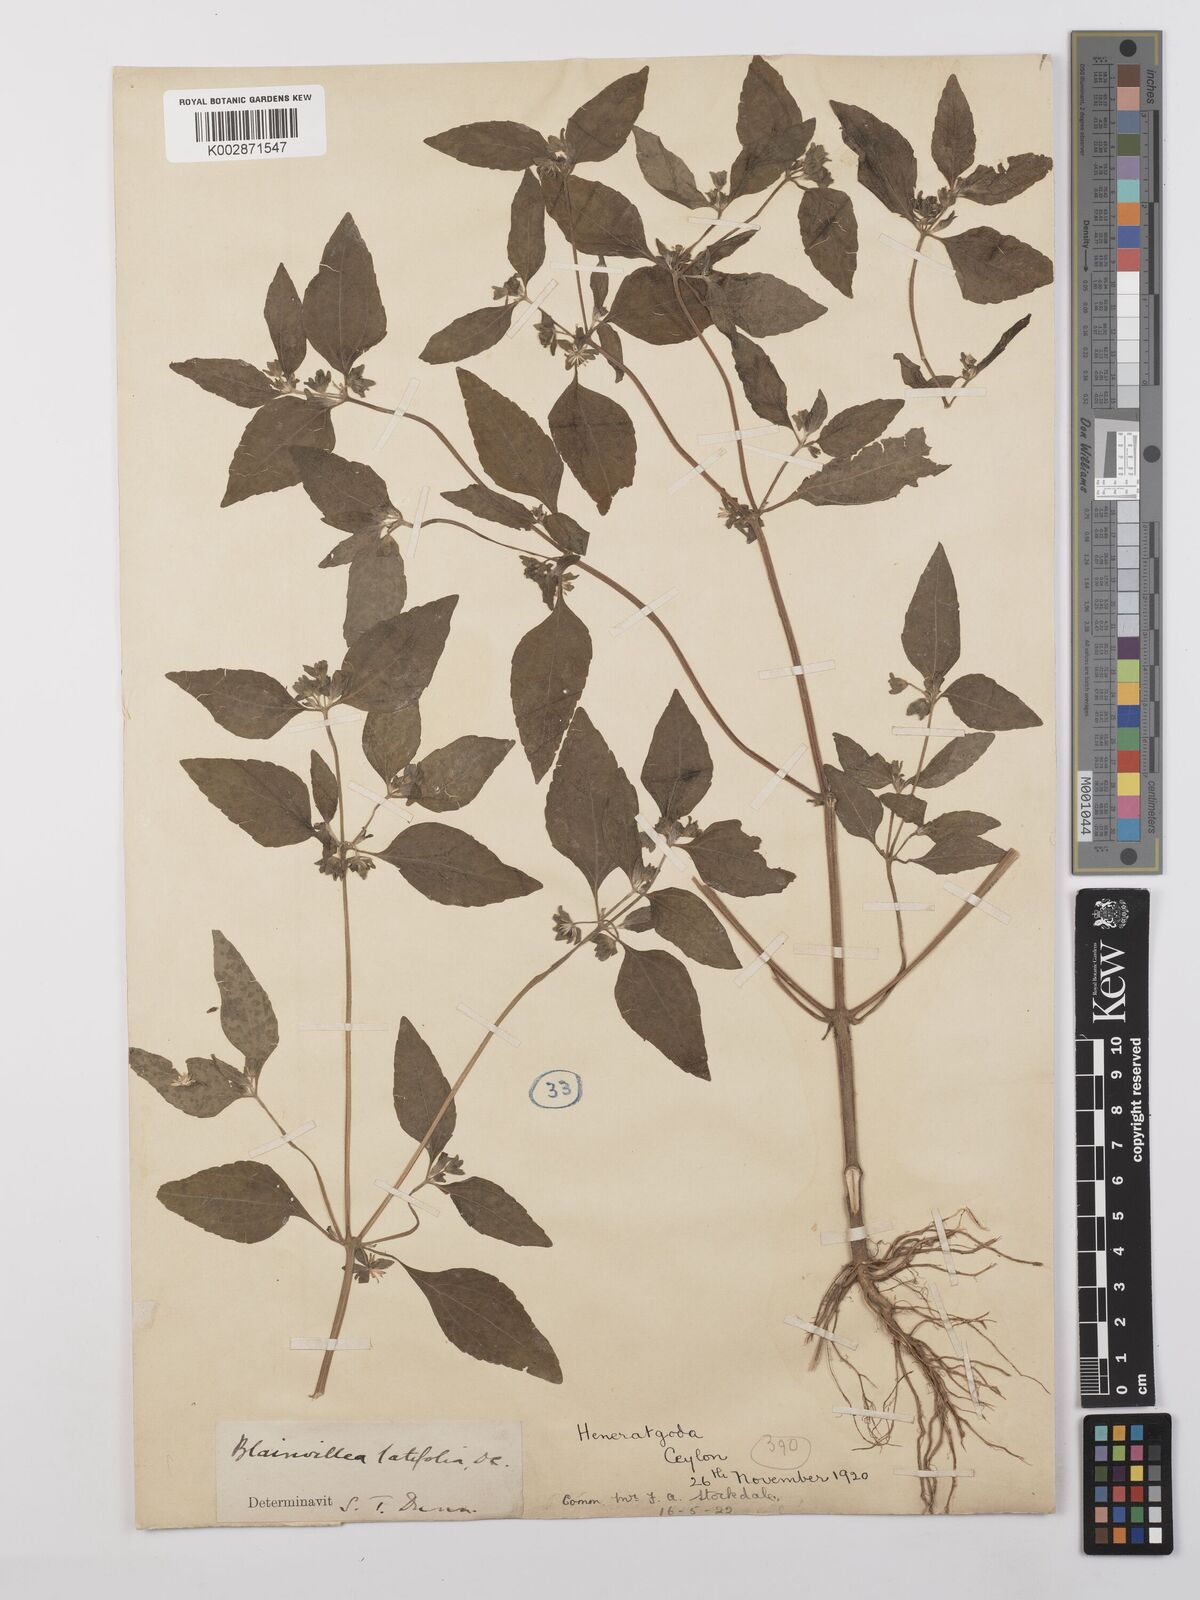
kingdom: Plantae
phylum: Tracheophyta
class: Magnoliopsida
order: Asterales
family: Asteraceae
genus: Eleutheranthera
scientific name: Eleutheranthera ruderalis
